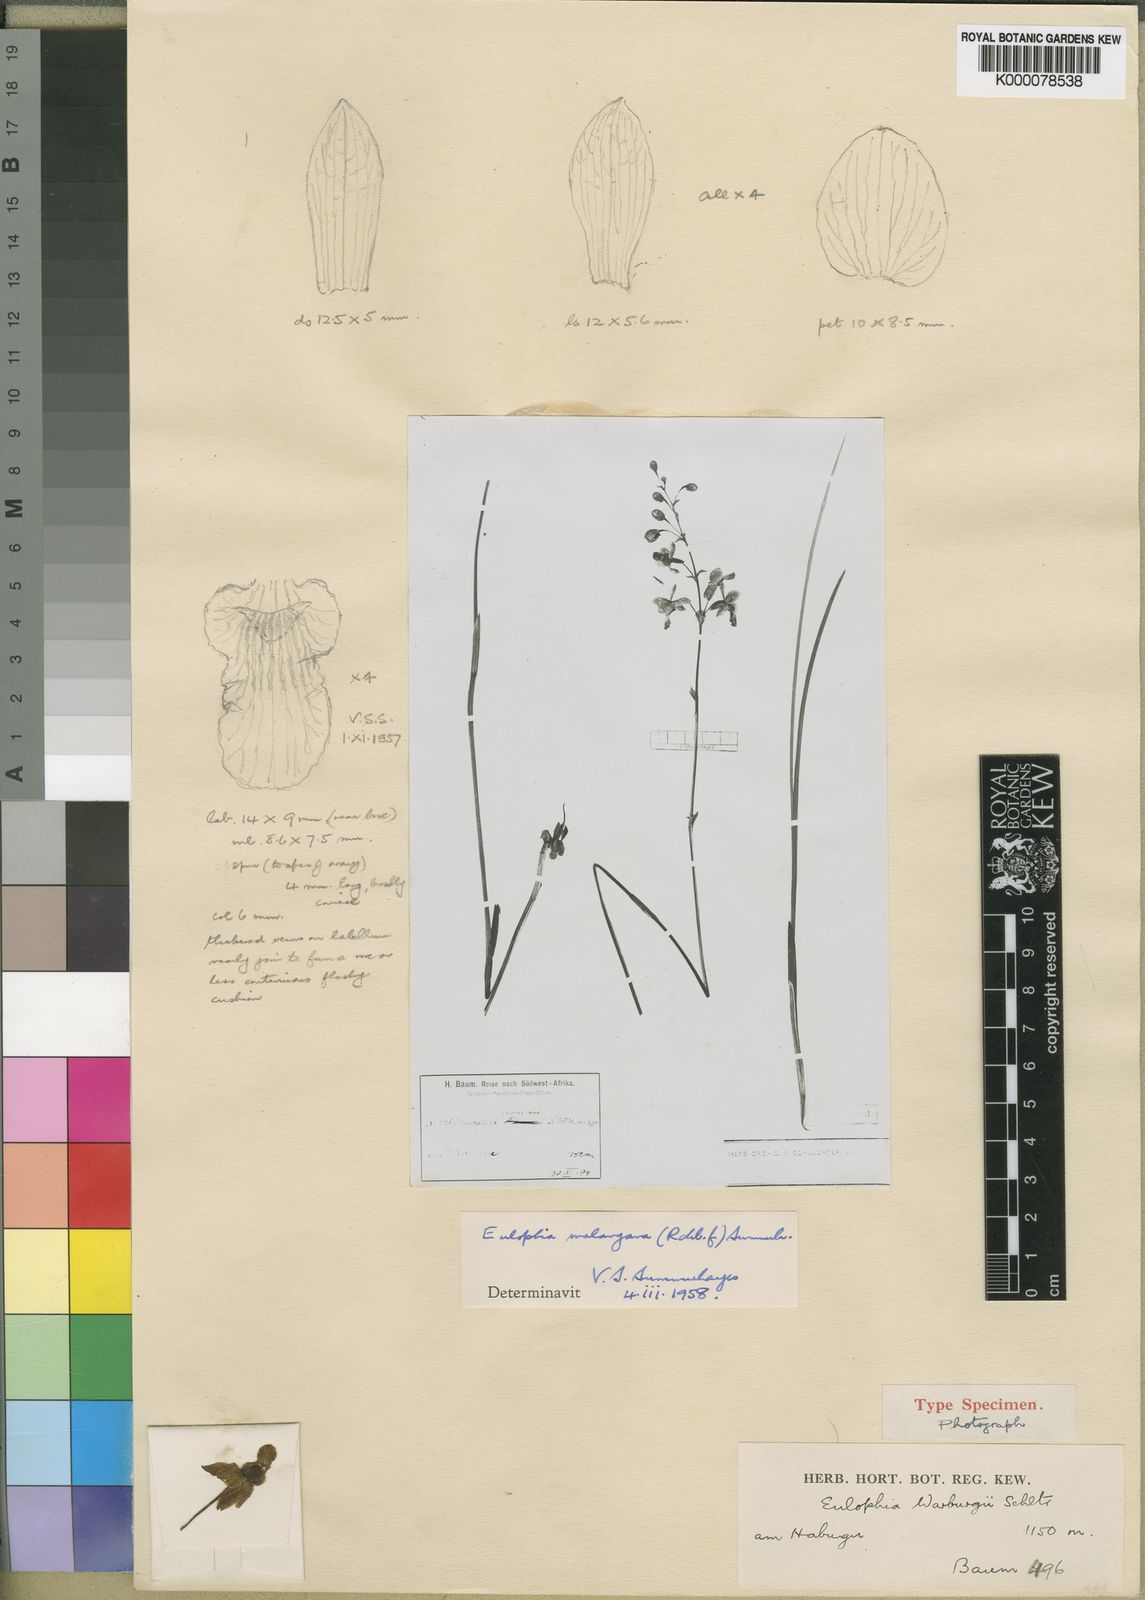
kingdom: Plantae
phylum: Tracheophyta
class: Liliopsida
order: Asparagales
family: Orchidaceae
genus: Eulophia
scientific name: Eulophia malangana
